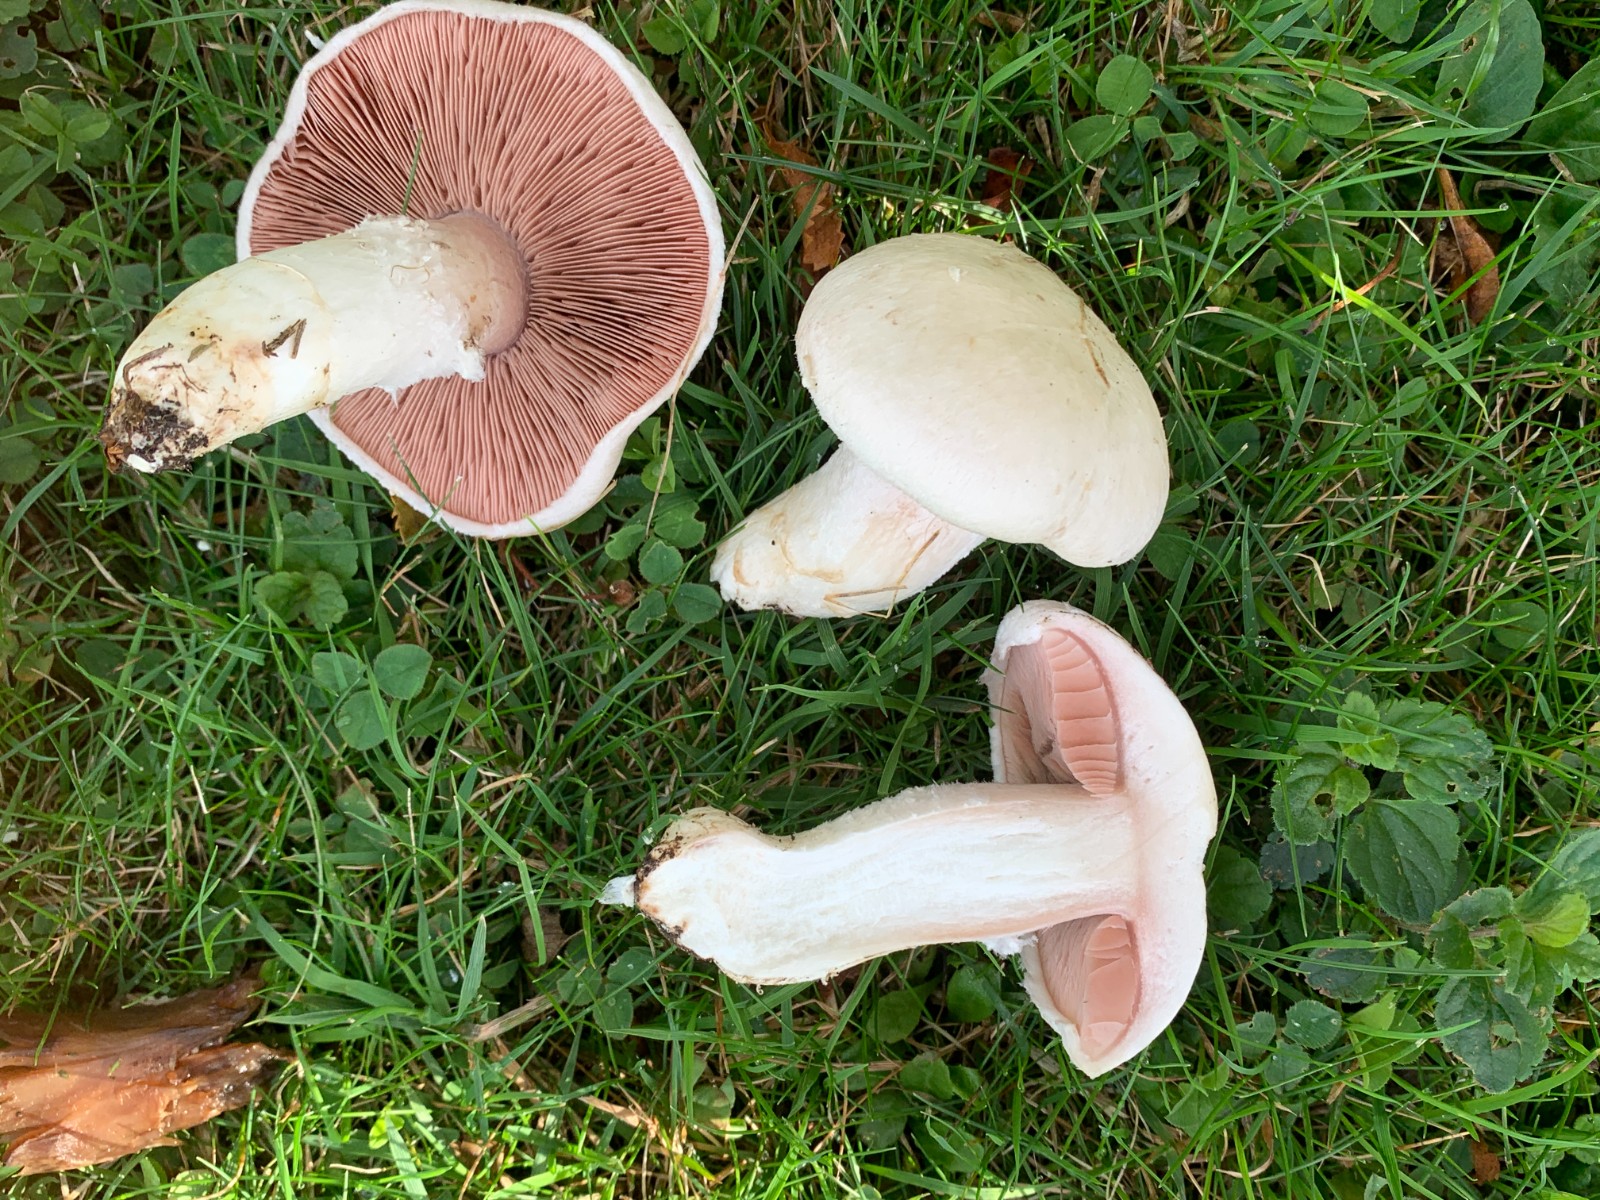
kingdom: Fungi
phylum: Basidiomycota
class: Agaricomycetes
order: Agaricales
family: Agaricaceae
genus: Agaricus
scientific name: Agaricus xanthodermus
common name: karbol-champignon
